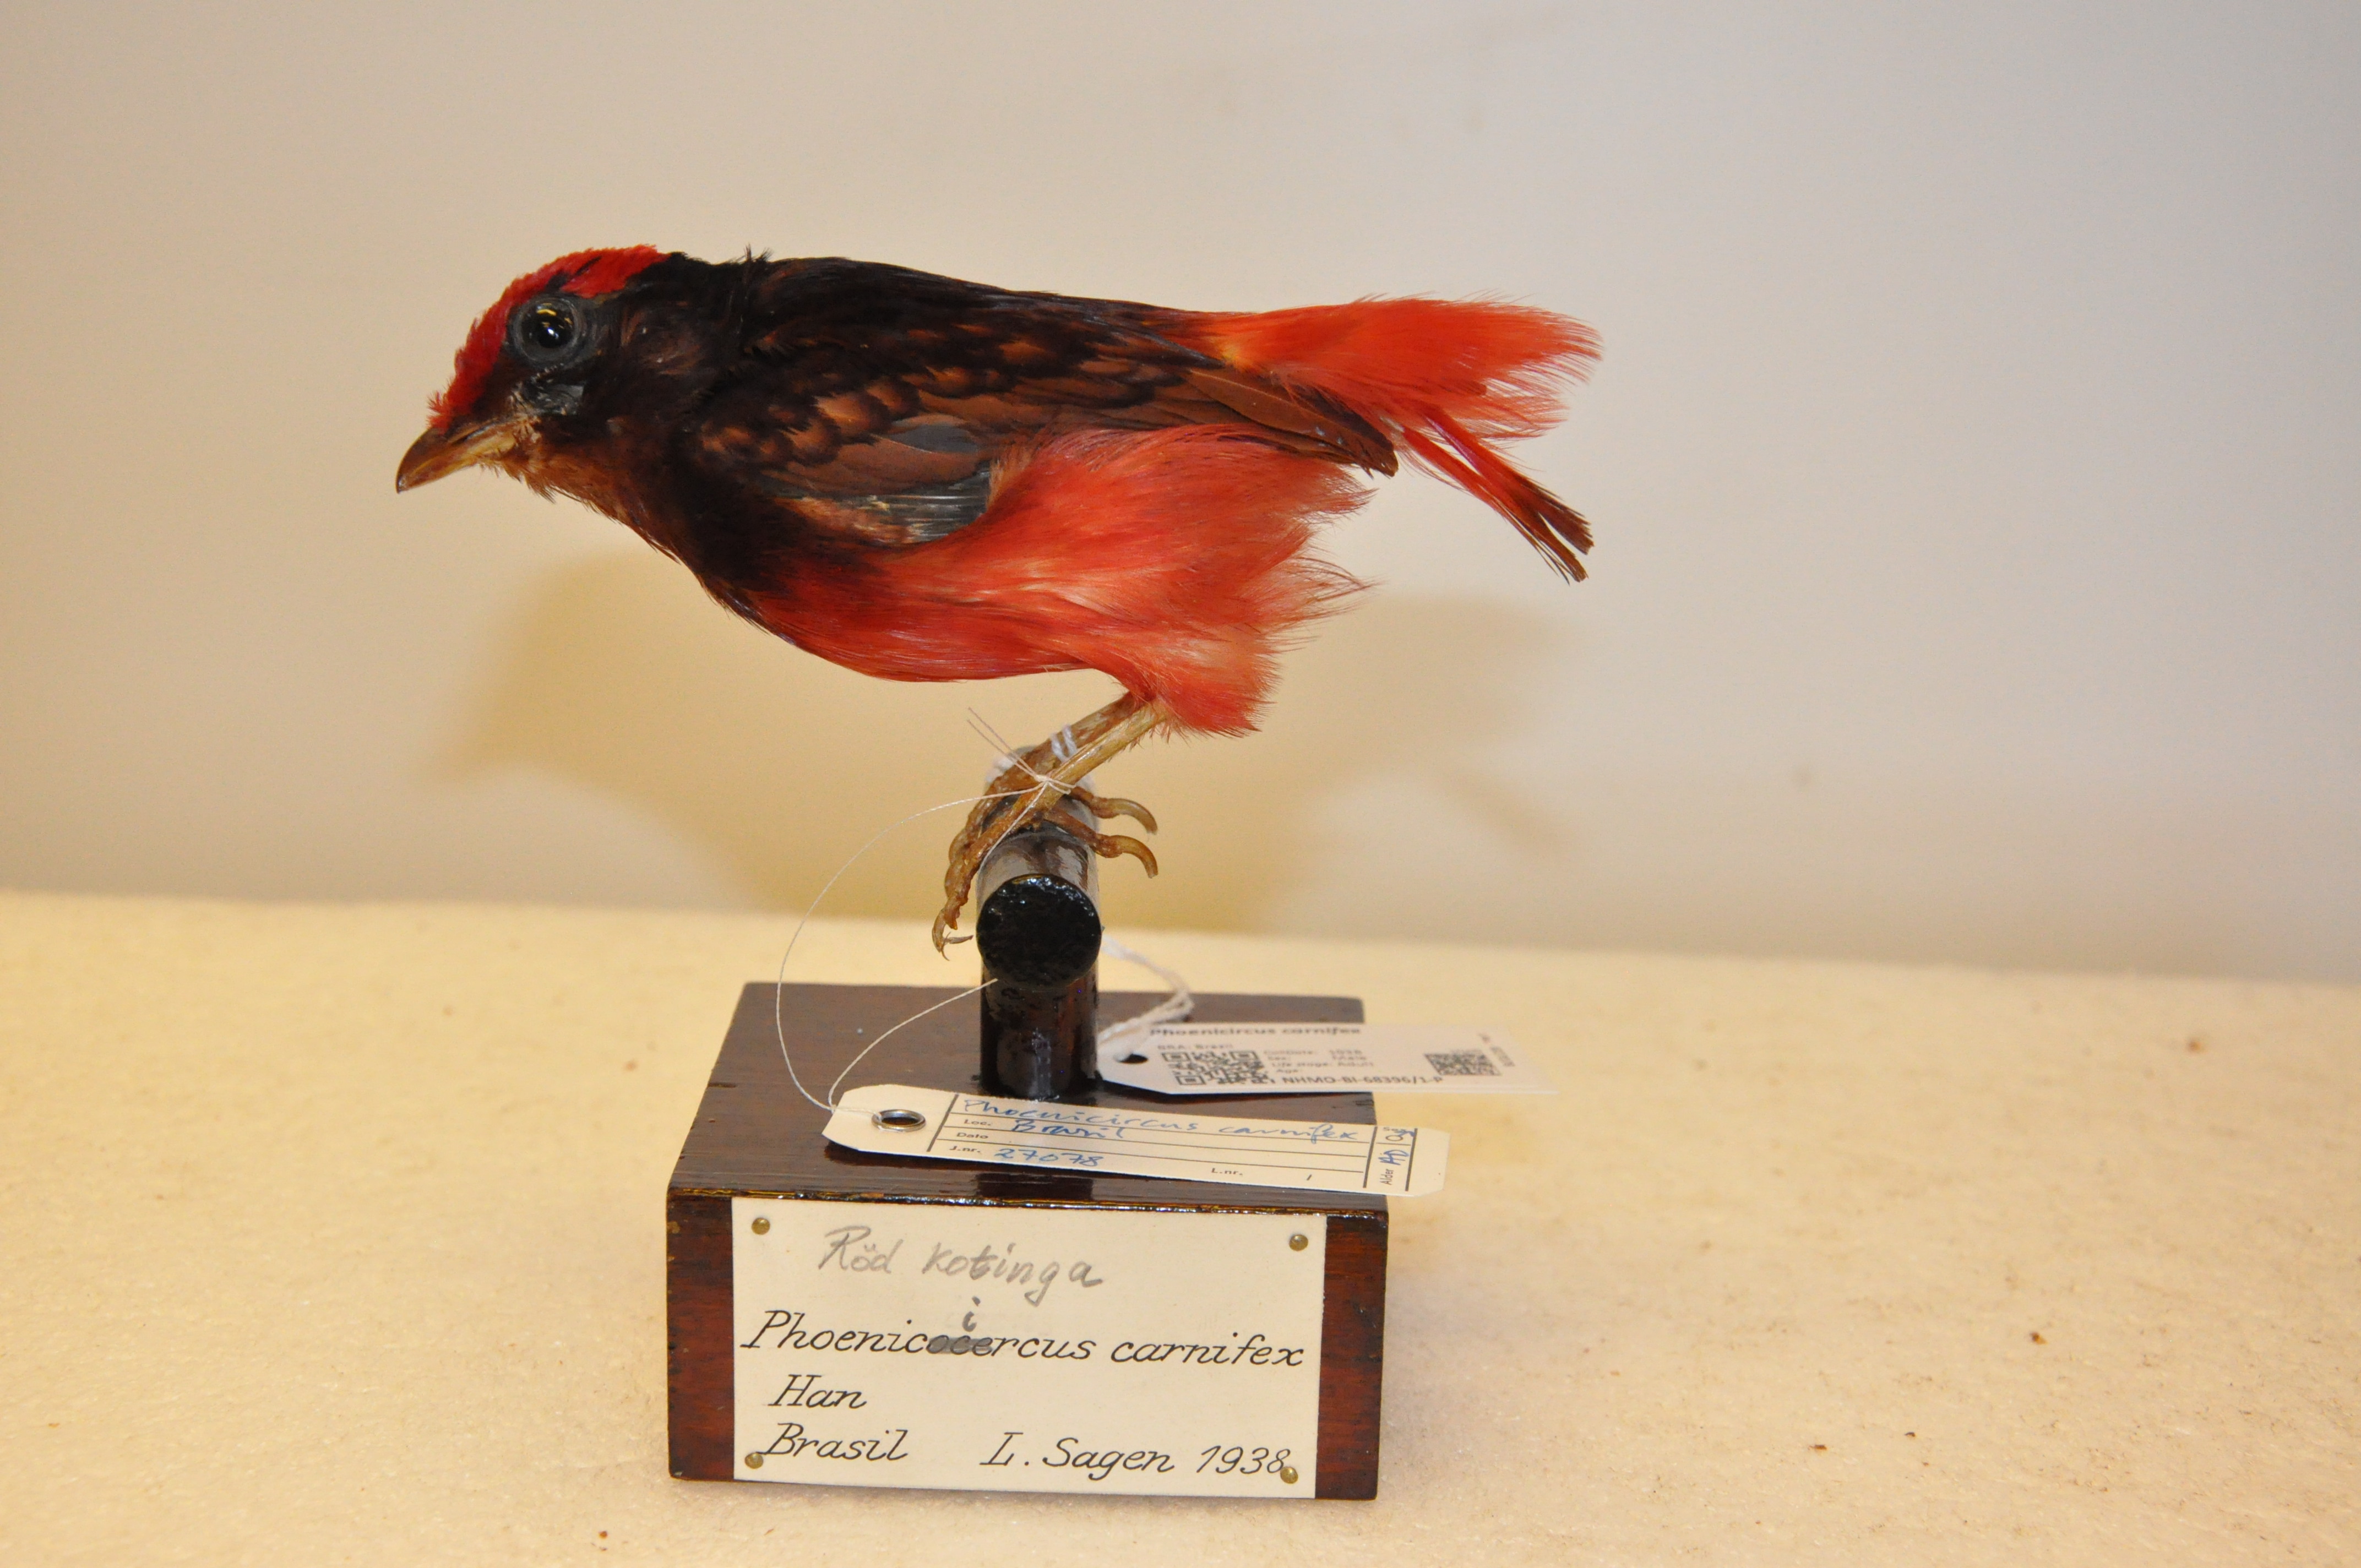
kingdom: Animalia
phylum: Chordata
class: Aves
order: Passeriformes
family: Cotingidae
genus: Phoenicircus
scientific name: Phoenicircus carnifex
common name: Guianan red cotinga
